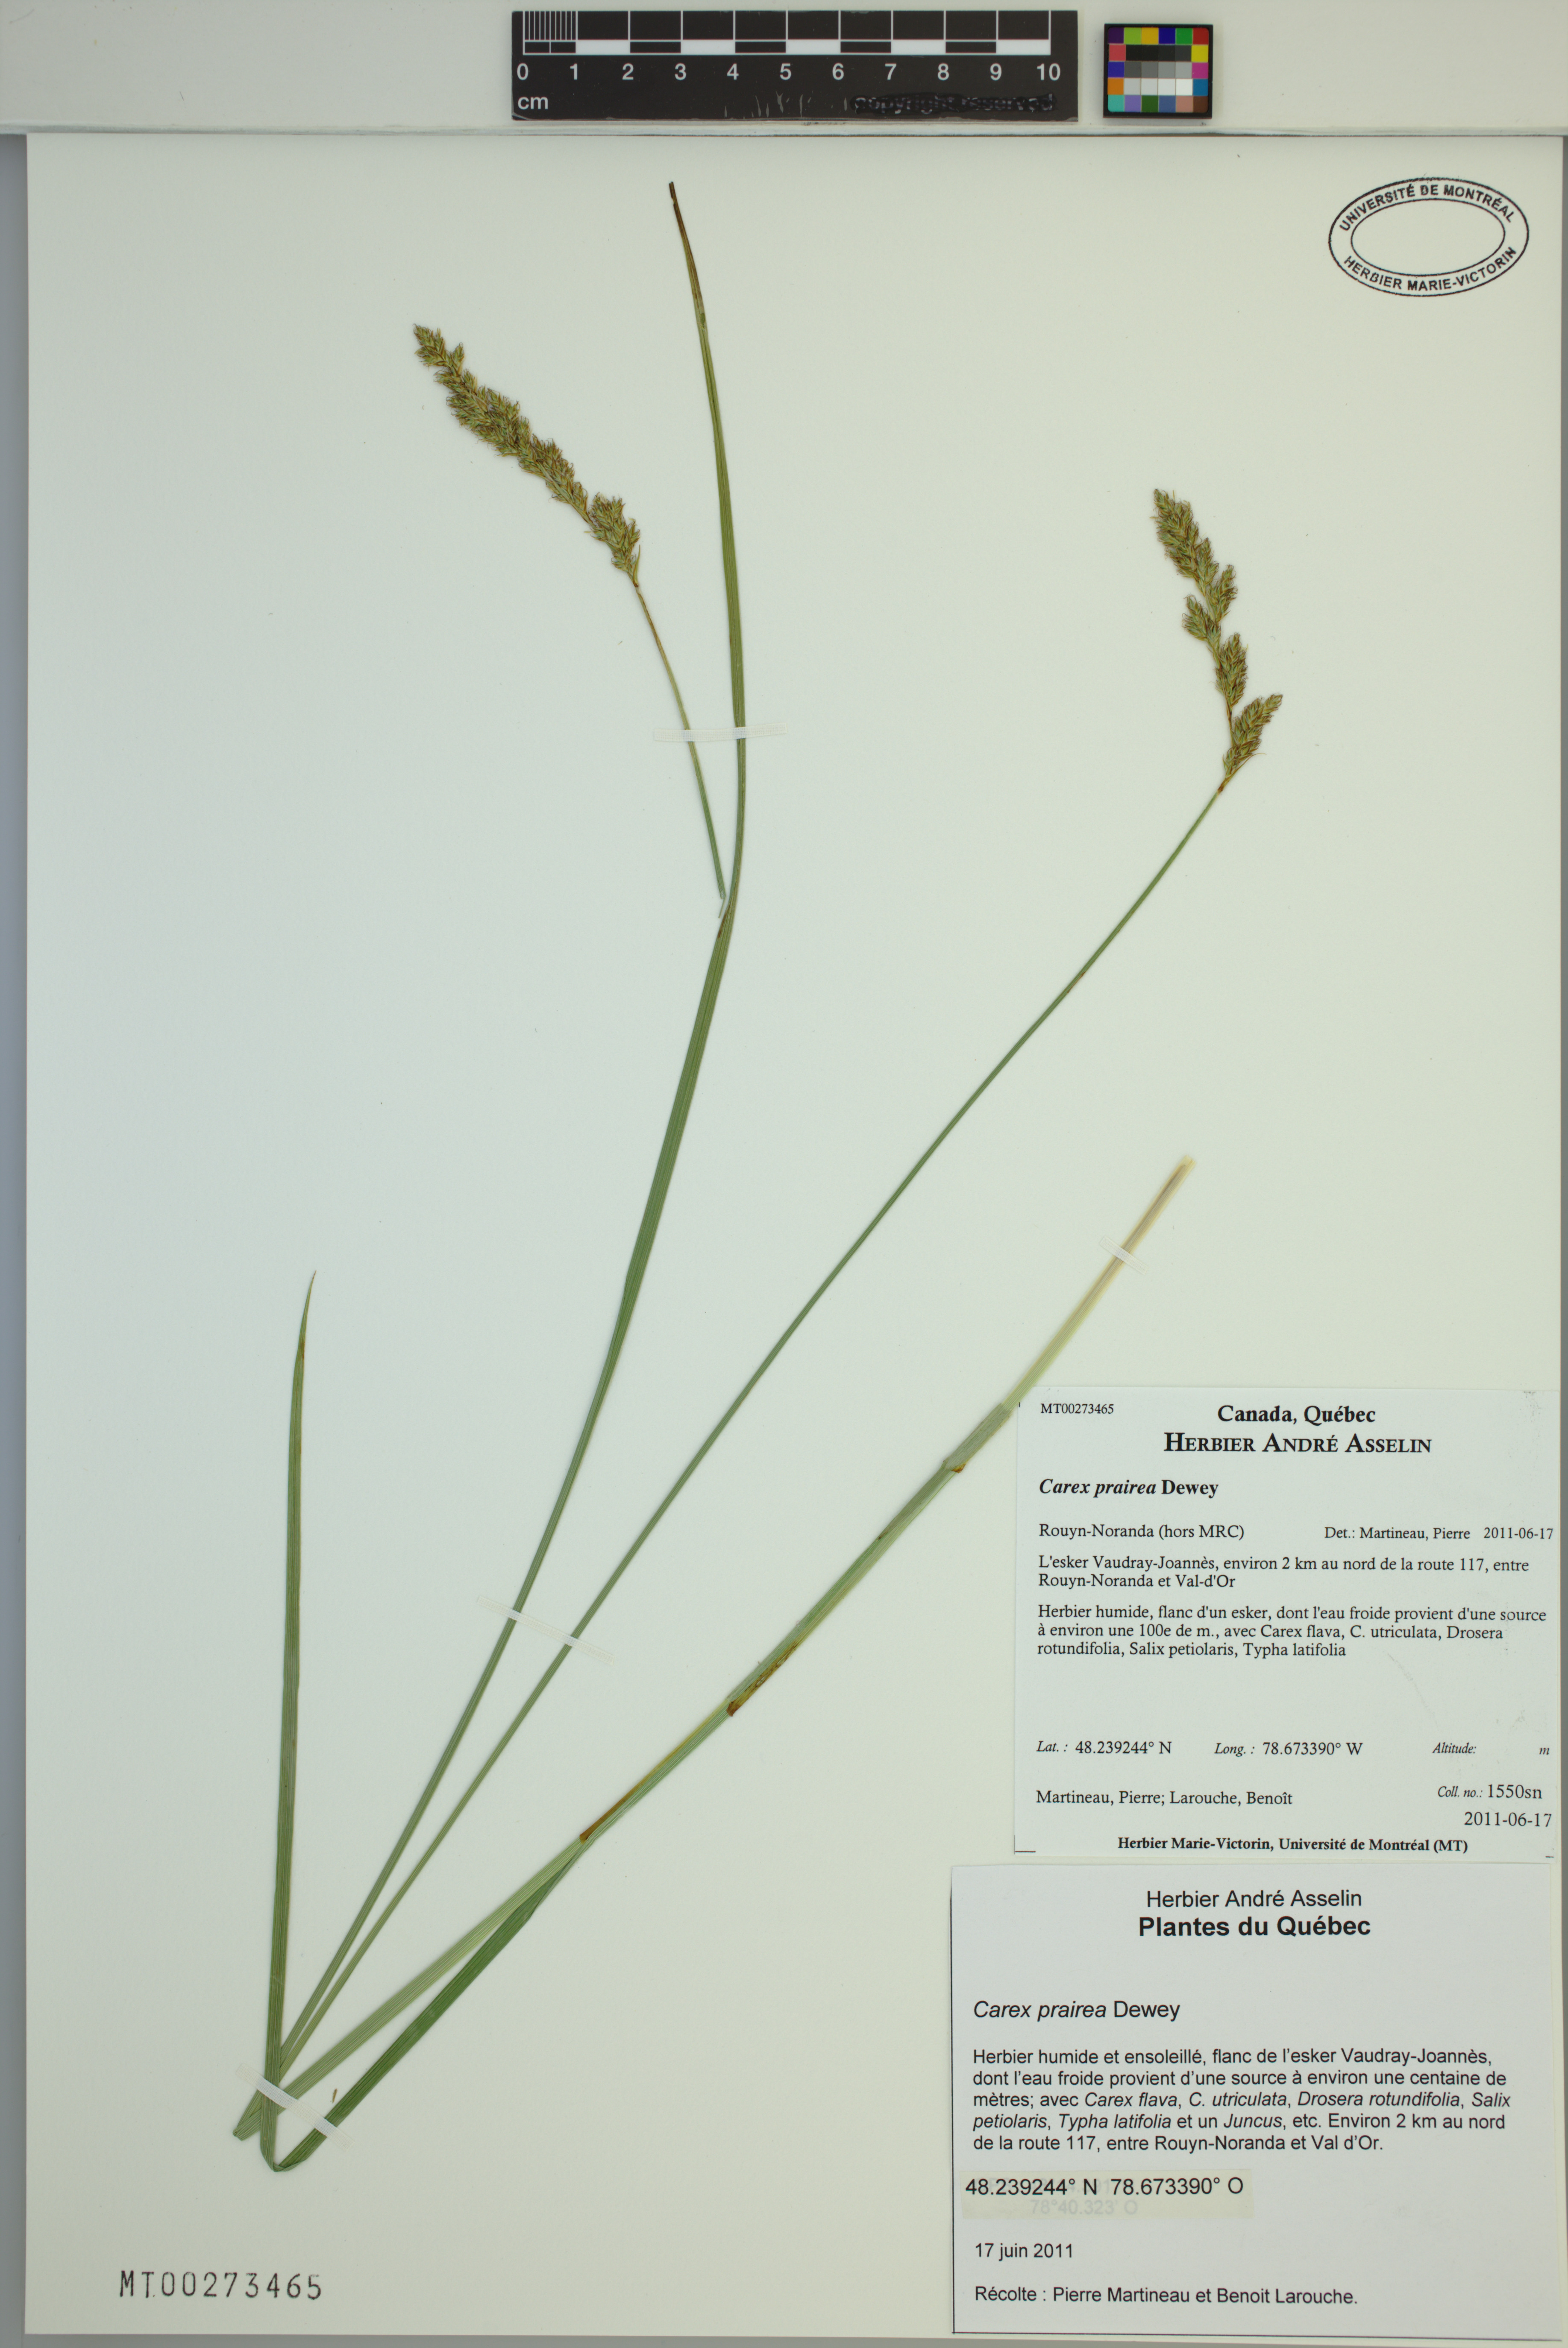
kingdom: Plantae
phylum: Tracheophyta
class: Liliopsida
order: Poales
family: Cyperaceae
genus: Carex
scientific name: Carex prairea
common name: Prairie sedge
